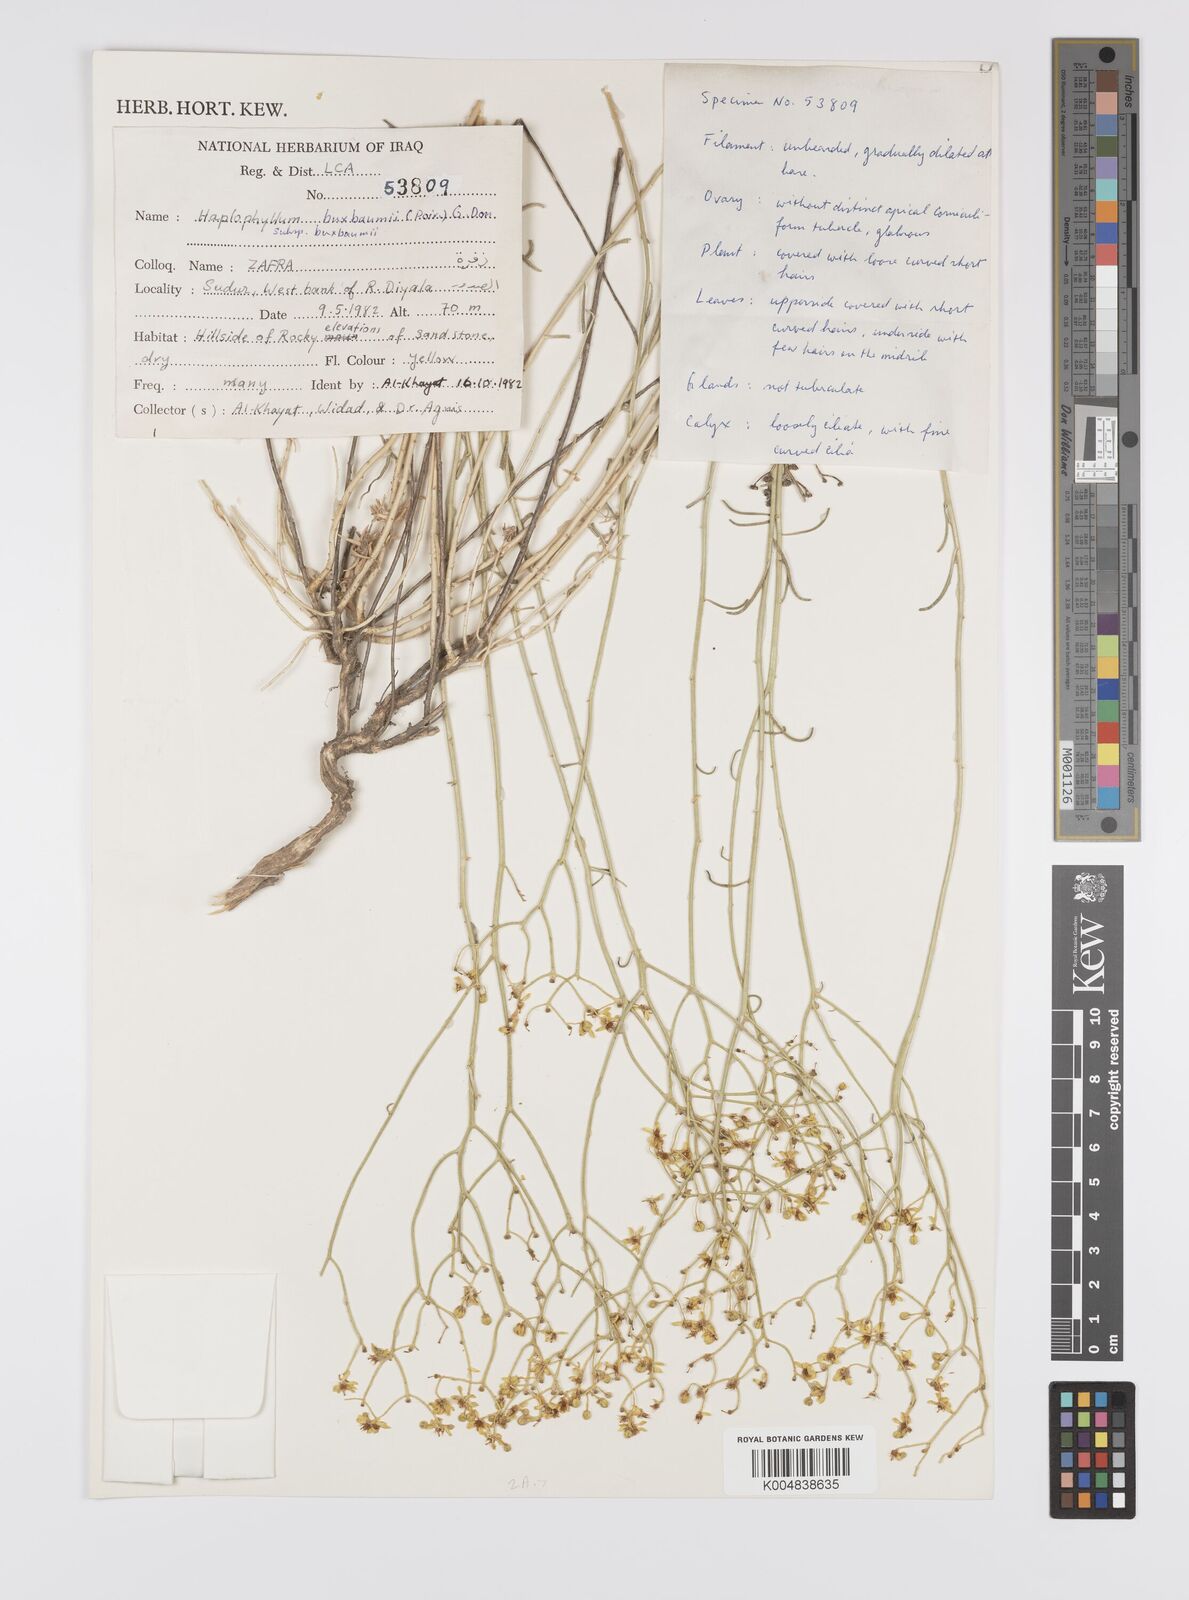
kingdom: Plantae
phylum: Tracheophyta
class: Magnoliopsida
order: Sapindales
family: Rutaceae
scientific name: Rutaceae
